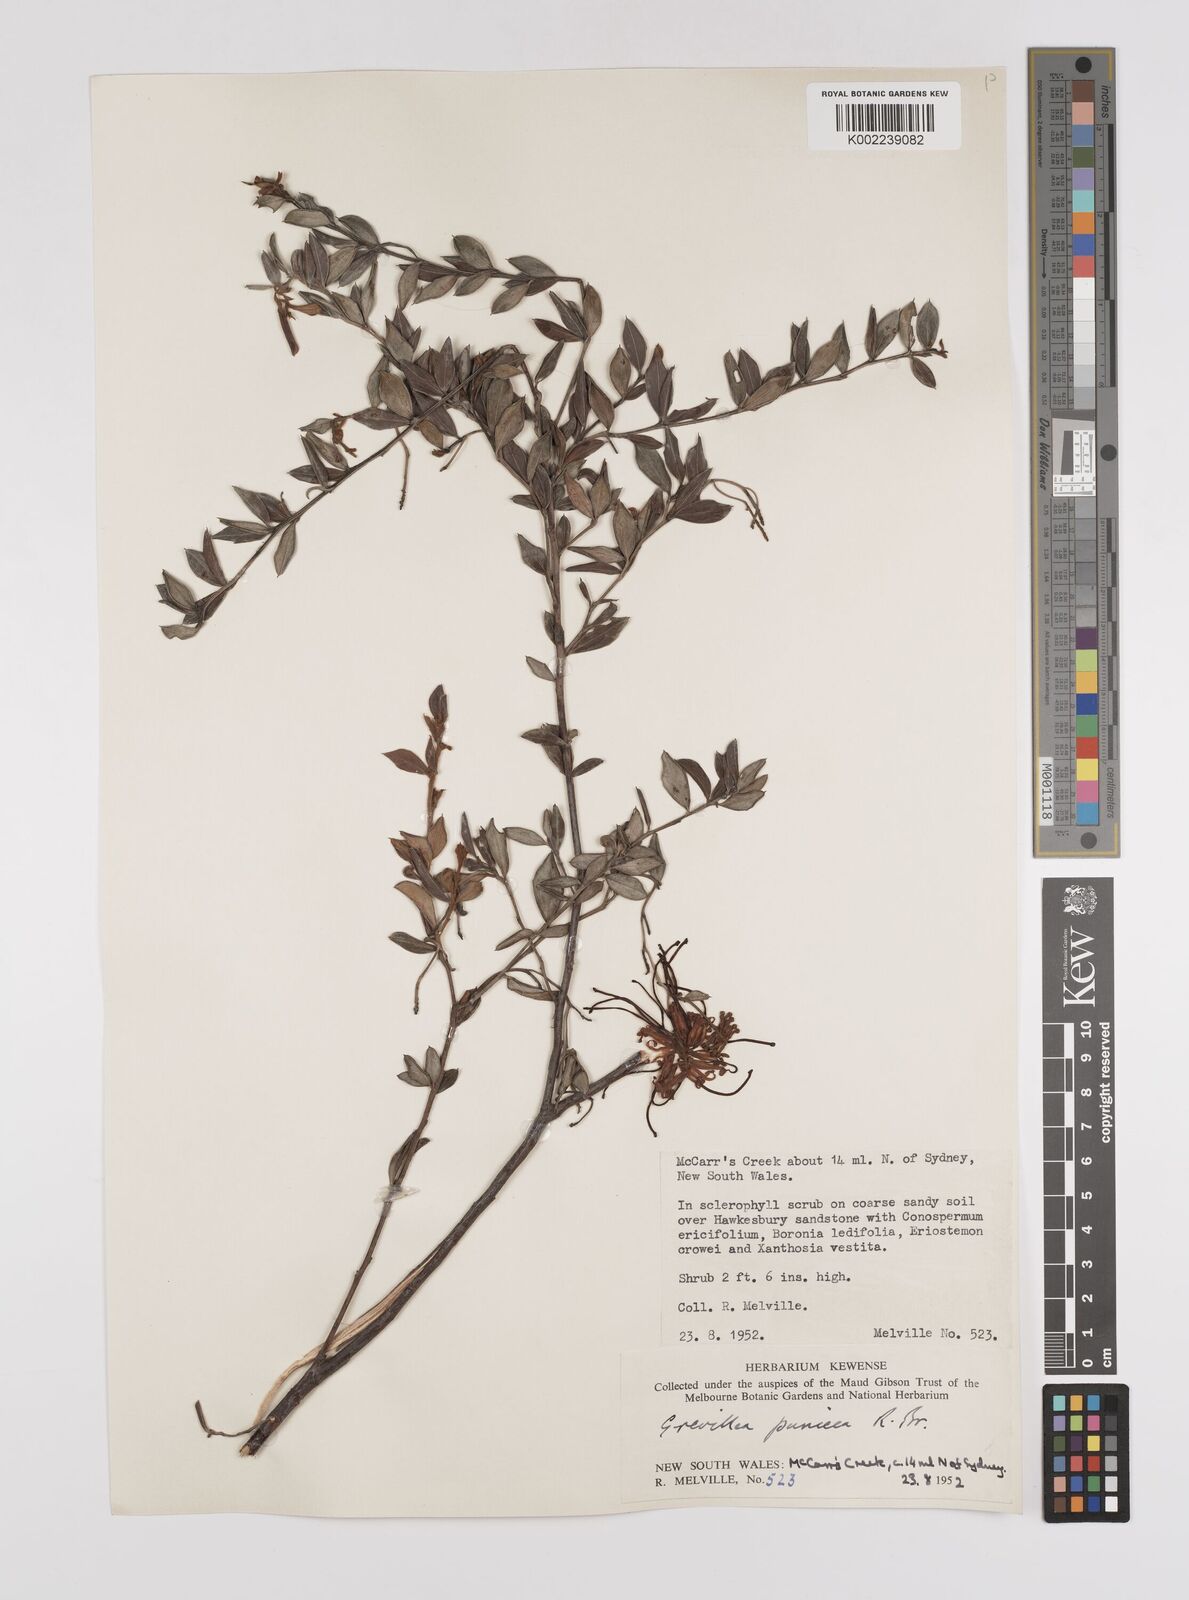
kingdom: Plantae
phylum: Tracheophyta
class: Magnoliopsida
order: Proteales
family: Proteaceae
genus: Grevillea
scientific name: Grevillea speciosa
